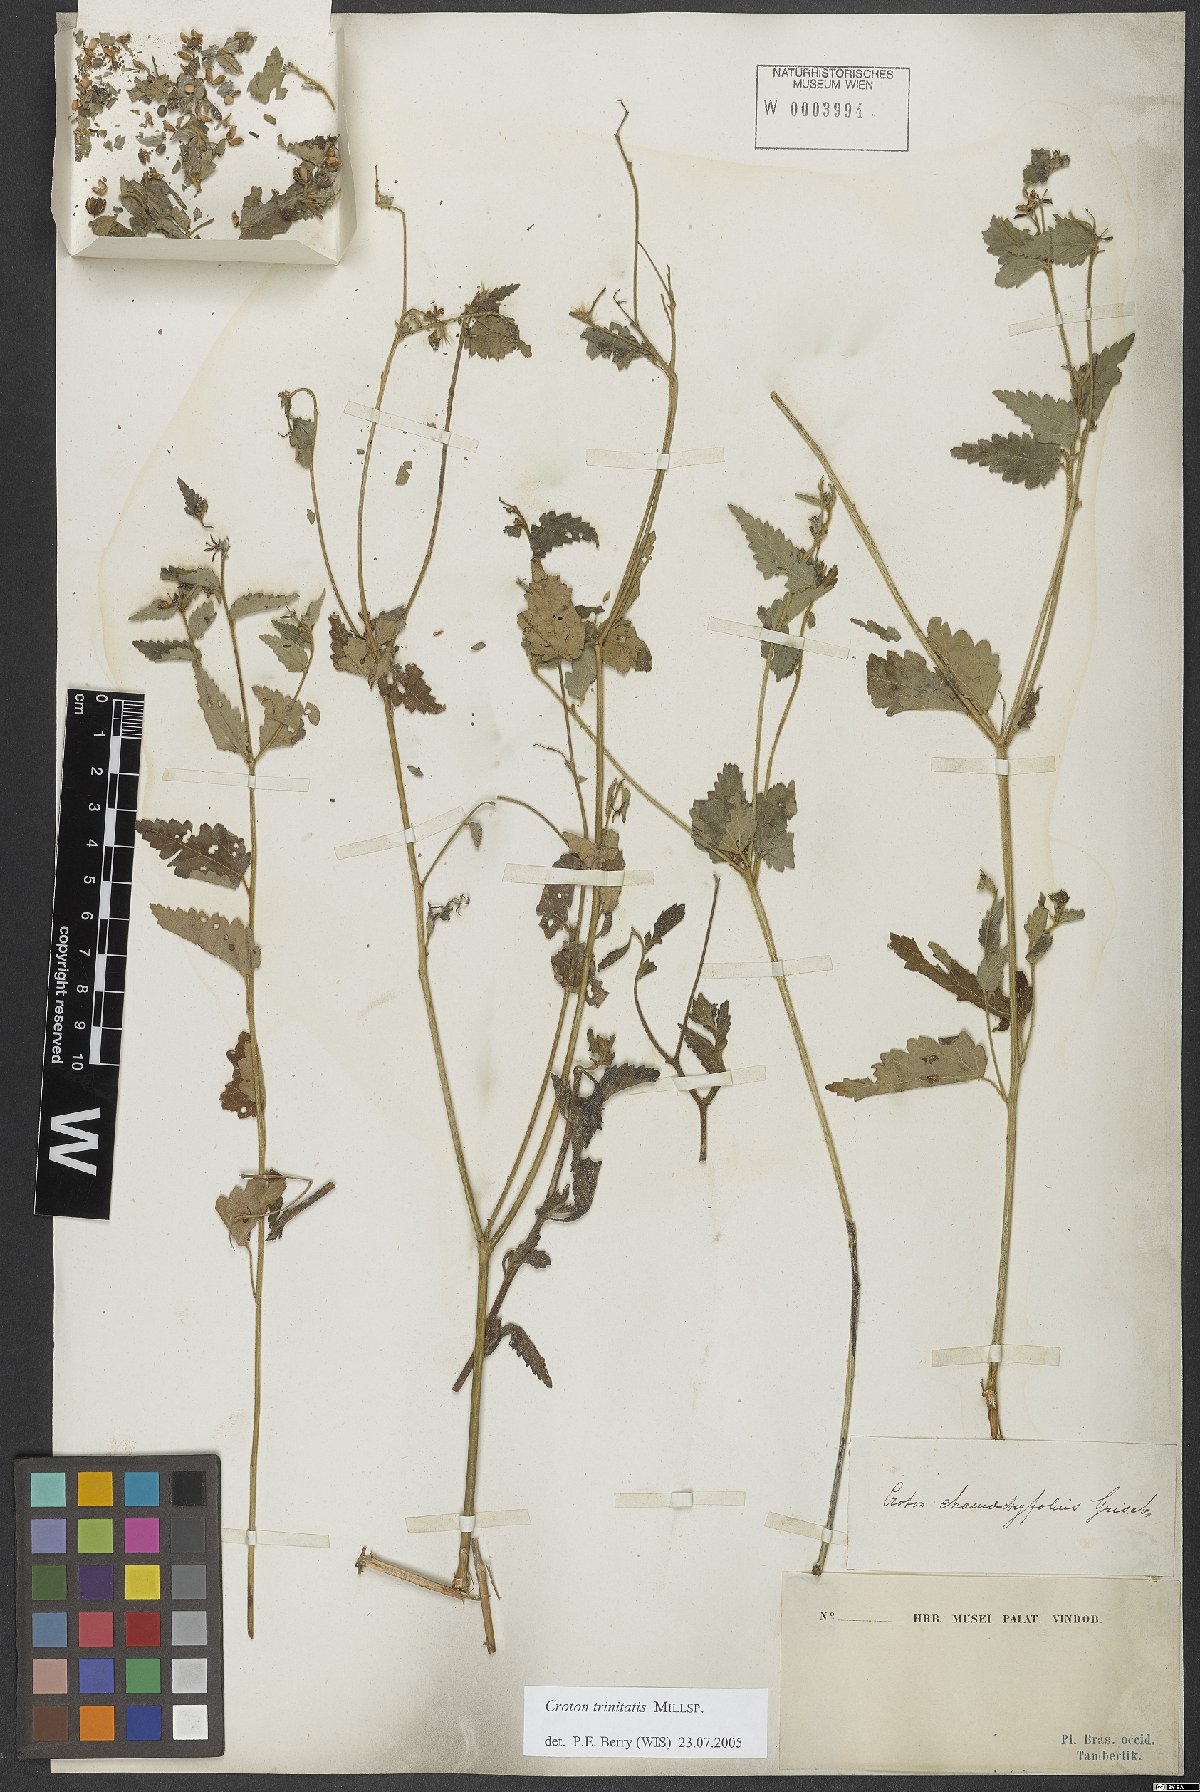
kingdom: Plantae
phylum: Tracheophyta
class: Magnoliopsida
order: Malpighiales
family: Euphorbiaceae
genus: Croton
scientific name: Croton trinitatis
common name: Roadside croton
